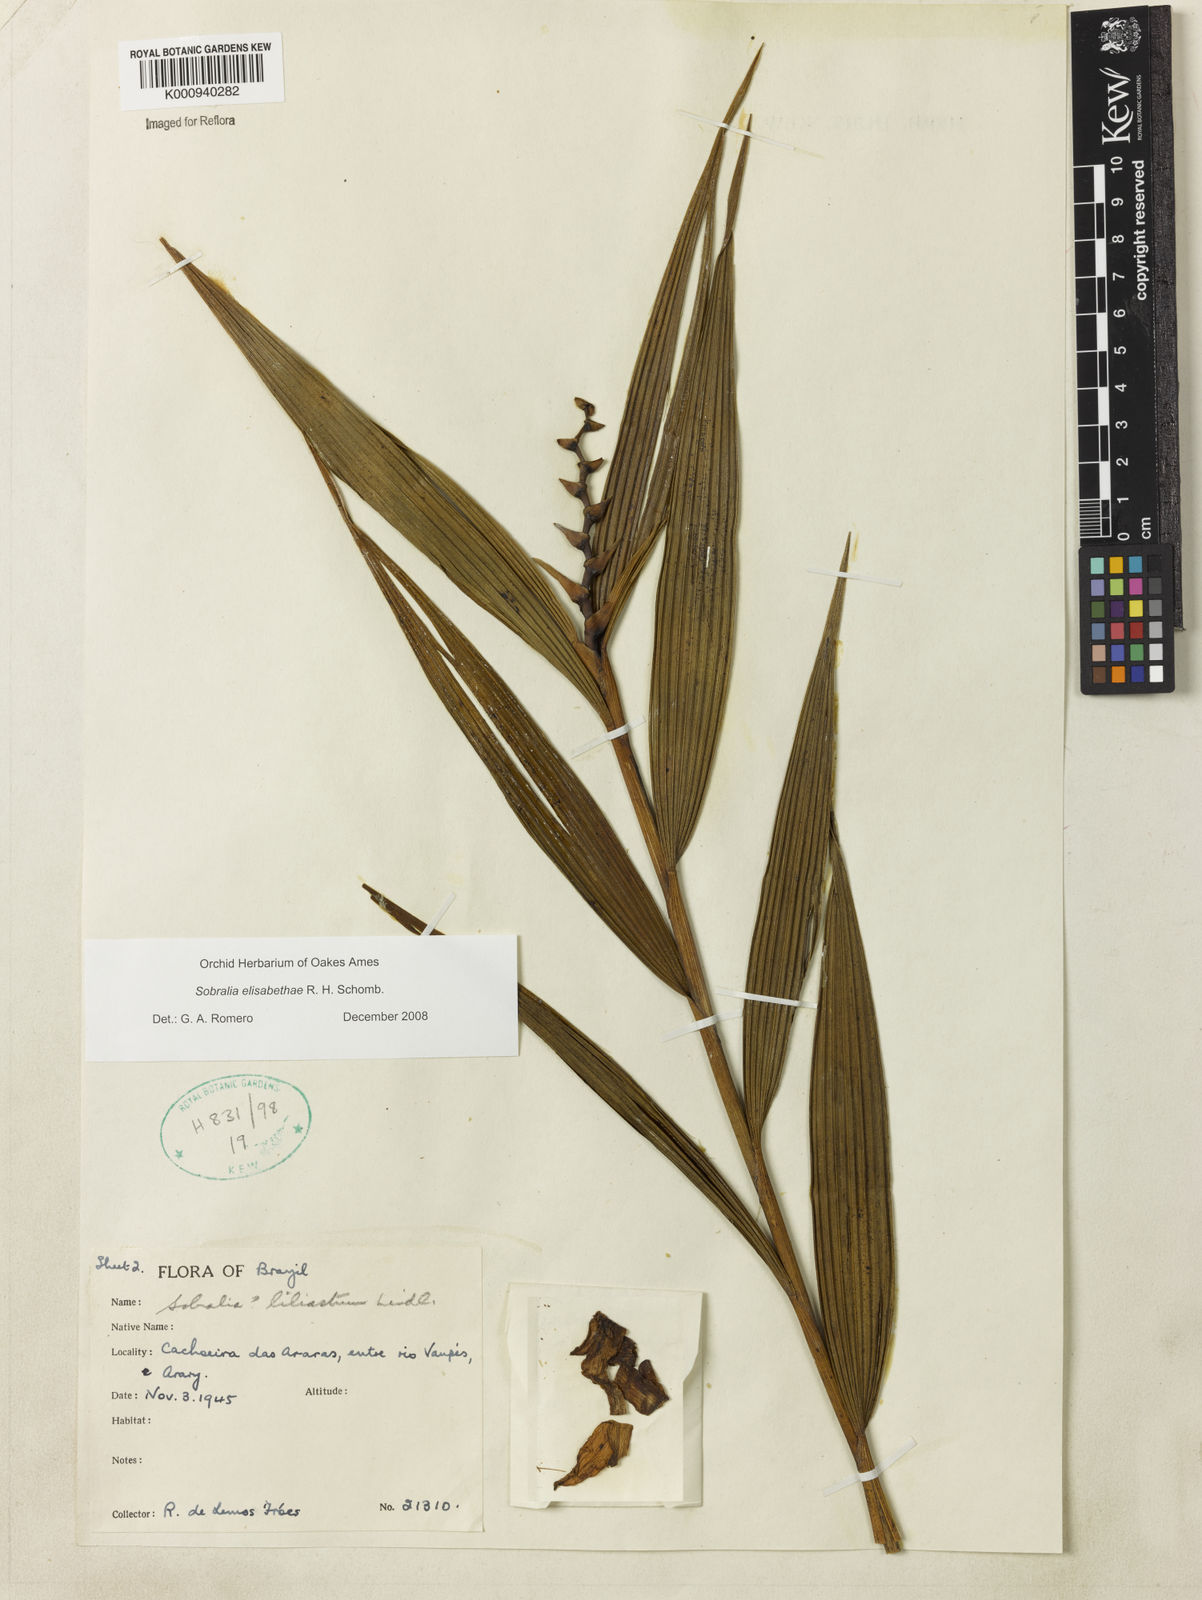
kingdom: Plantae
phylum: Tracheophyta
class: Liliopsida
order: Asparagales
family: Orchidaceae
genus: Sobralia
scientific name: Sobralia elisabethae
